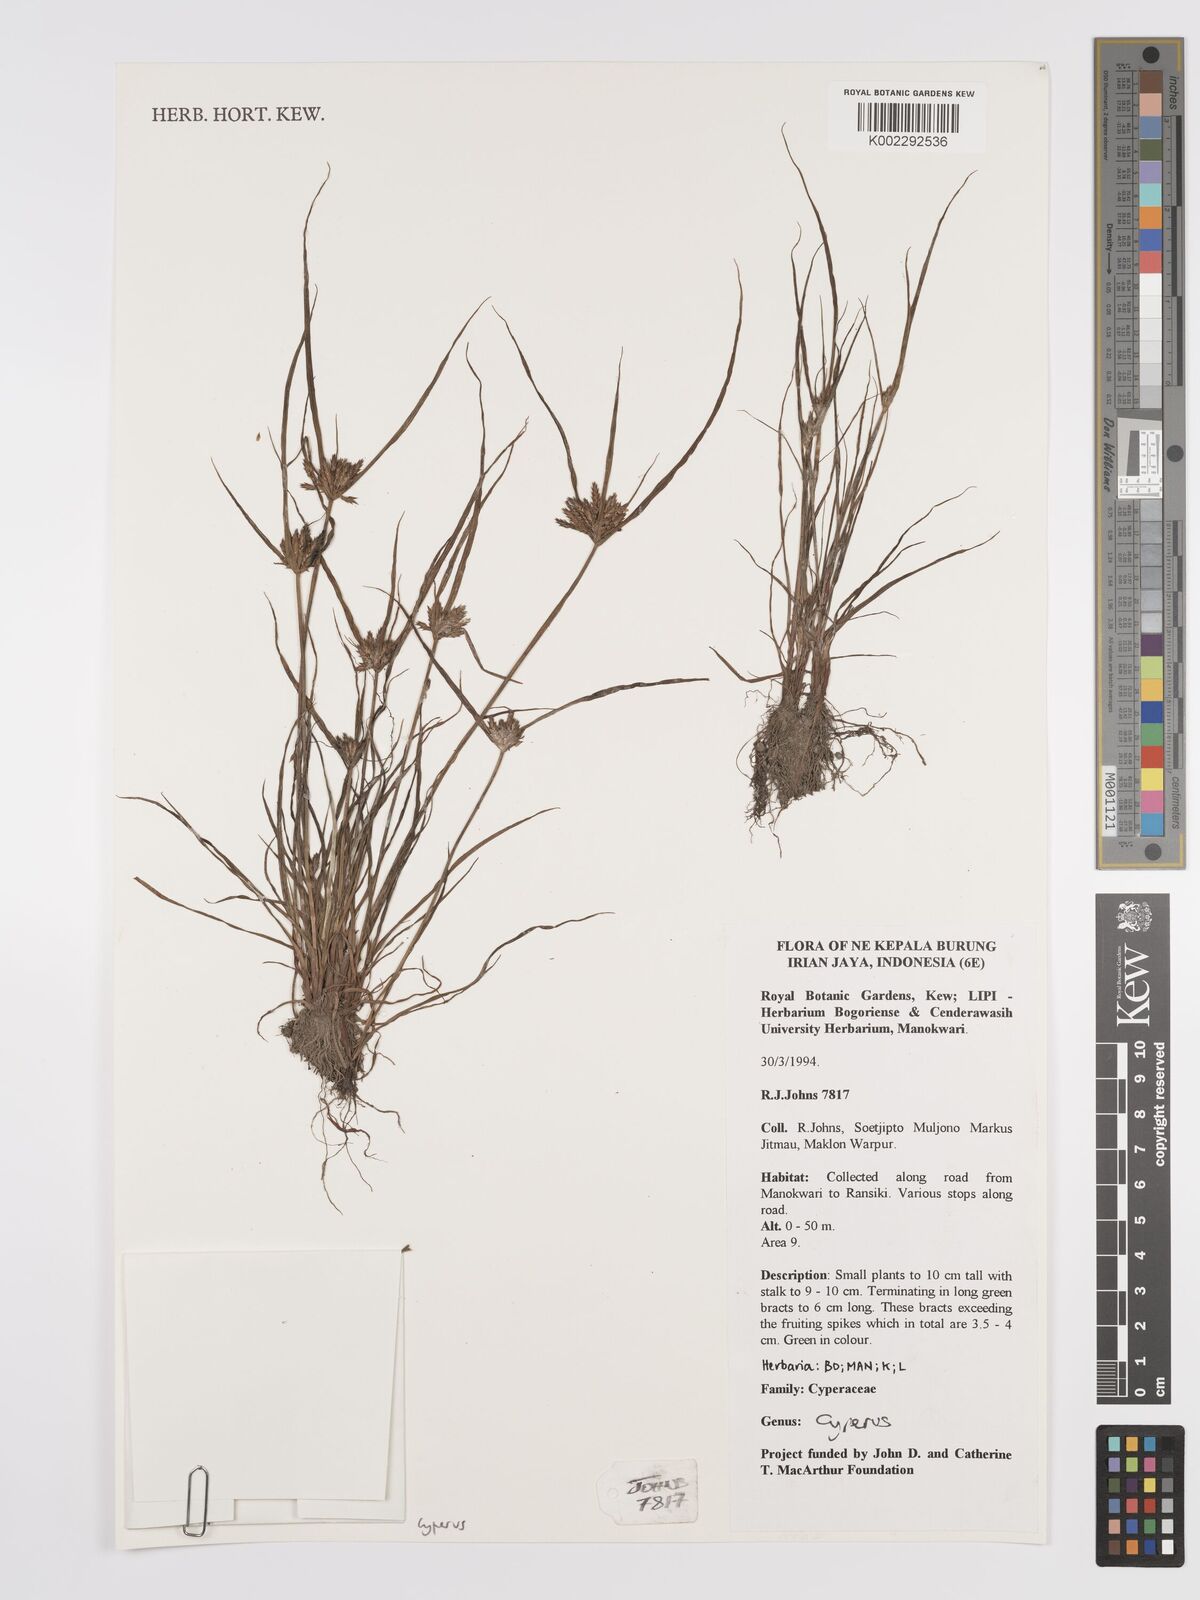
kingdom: Plantae
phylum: Tracheophyta
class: Liliopsida
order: Poales
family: Cyperaceae
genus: Cyperus
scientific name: Cyperus
